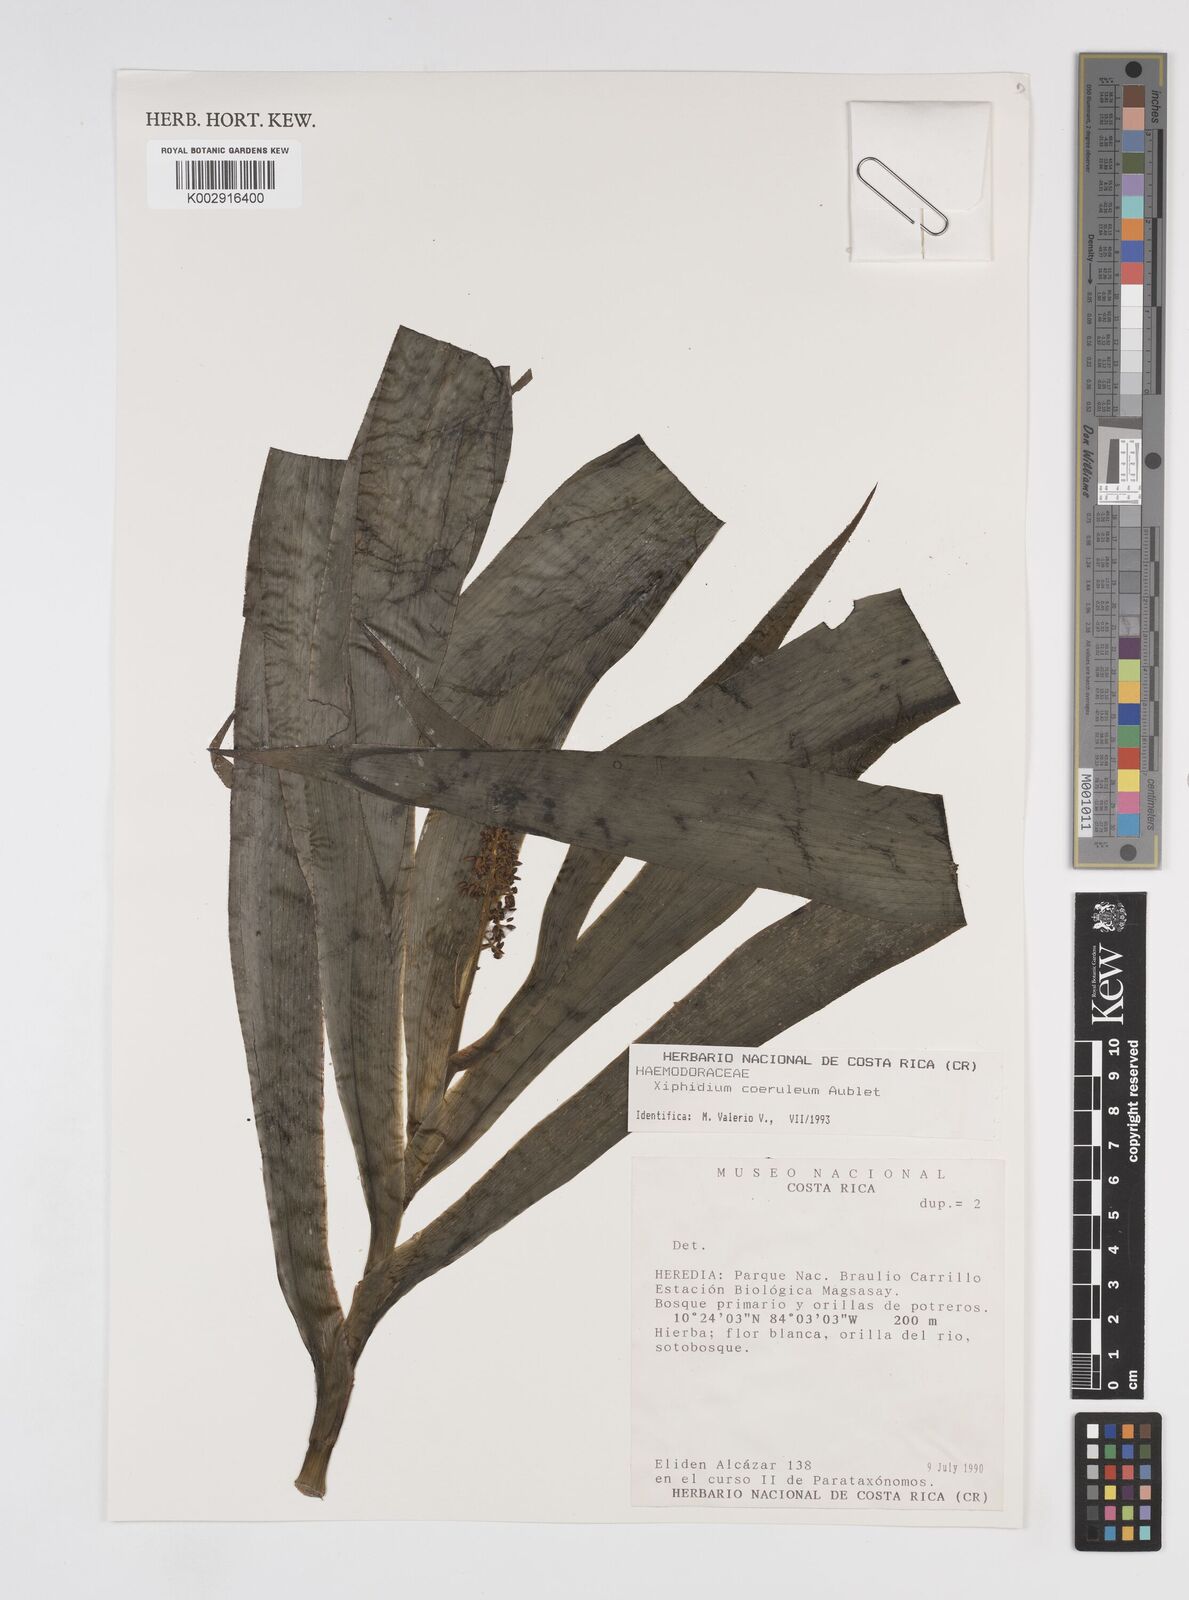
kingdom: Plantae
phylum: Tracheophyta
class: Liliopsida
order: Commelinales
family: Haemodoraceae
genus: Xiphidium
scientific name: Xiphidium caeruleum
